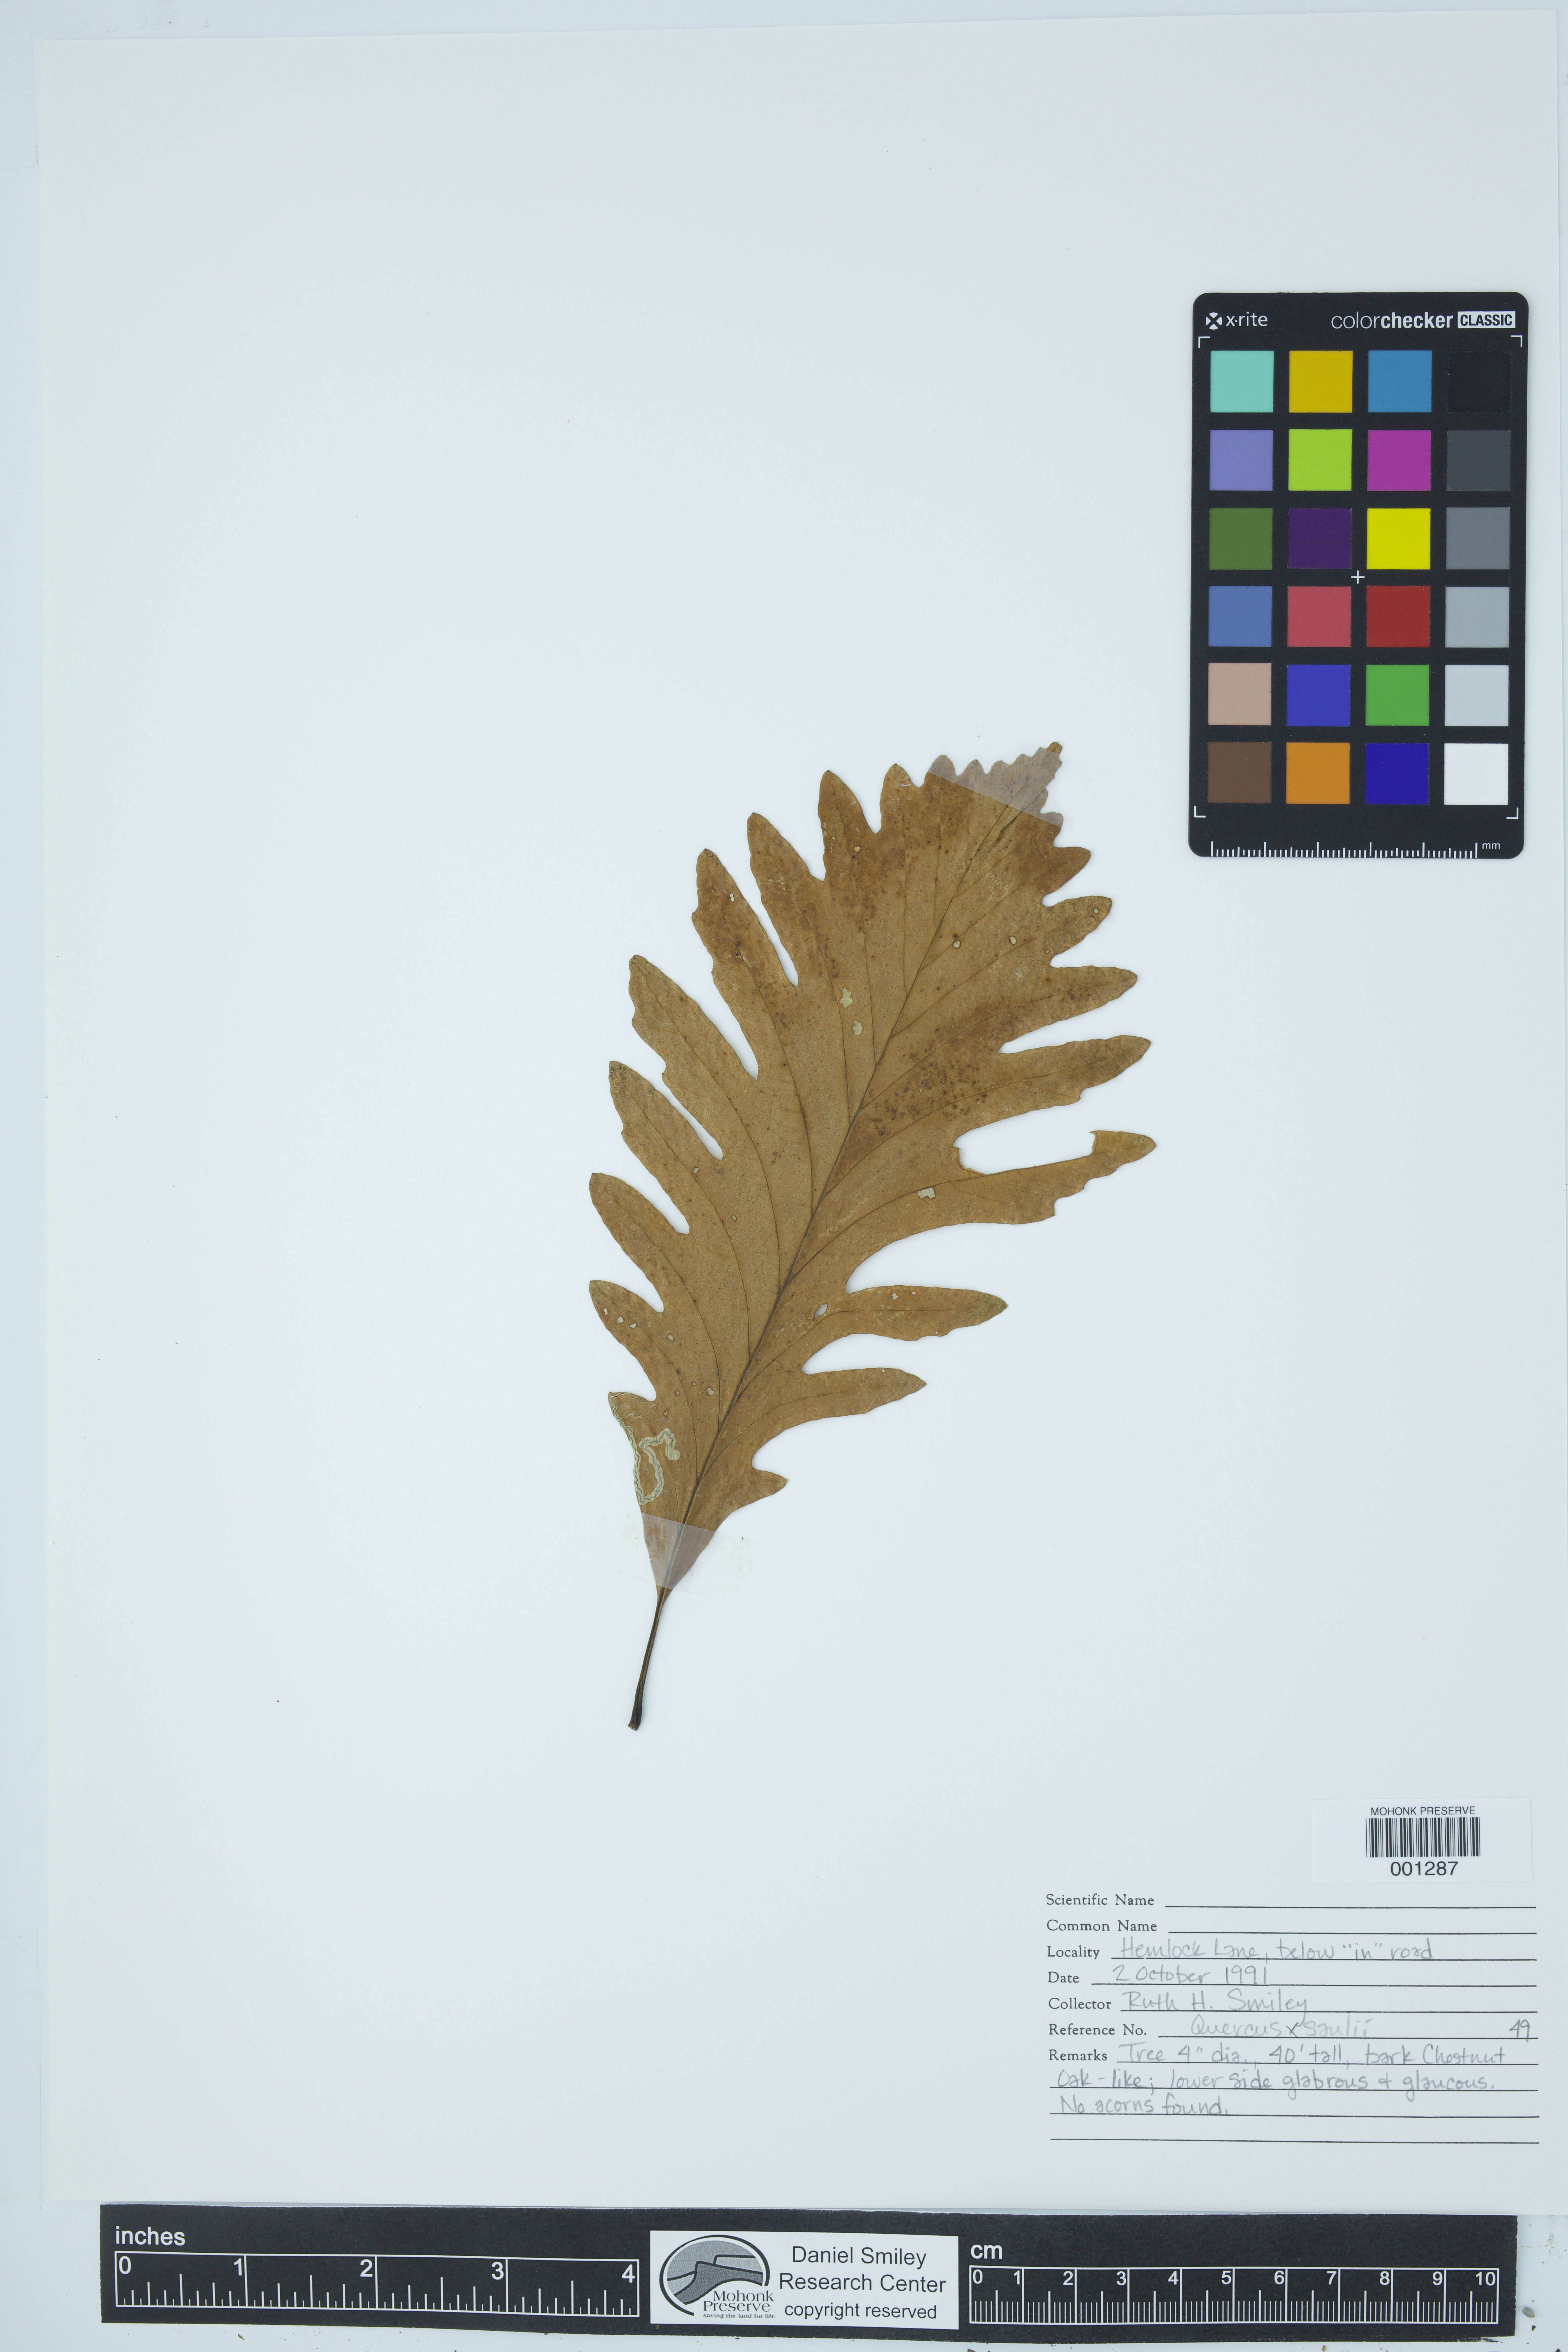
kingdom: Plantae
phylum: Tracheophyta
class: Magnoliopsida
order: Fagales
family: Fagaceae
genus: Quercus
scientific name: Quercus saulii
